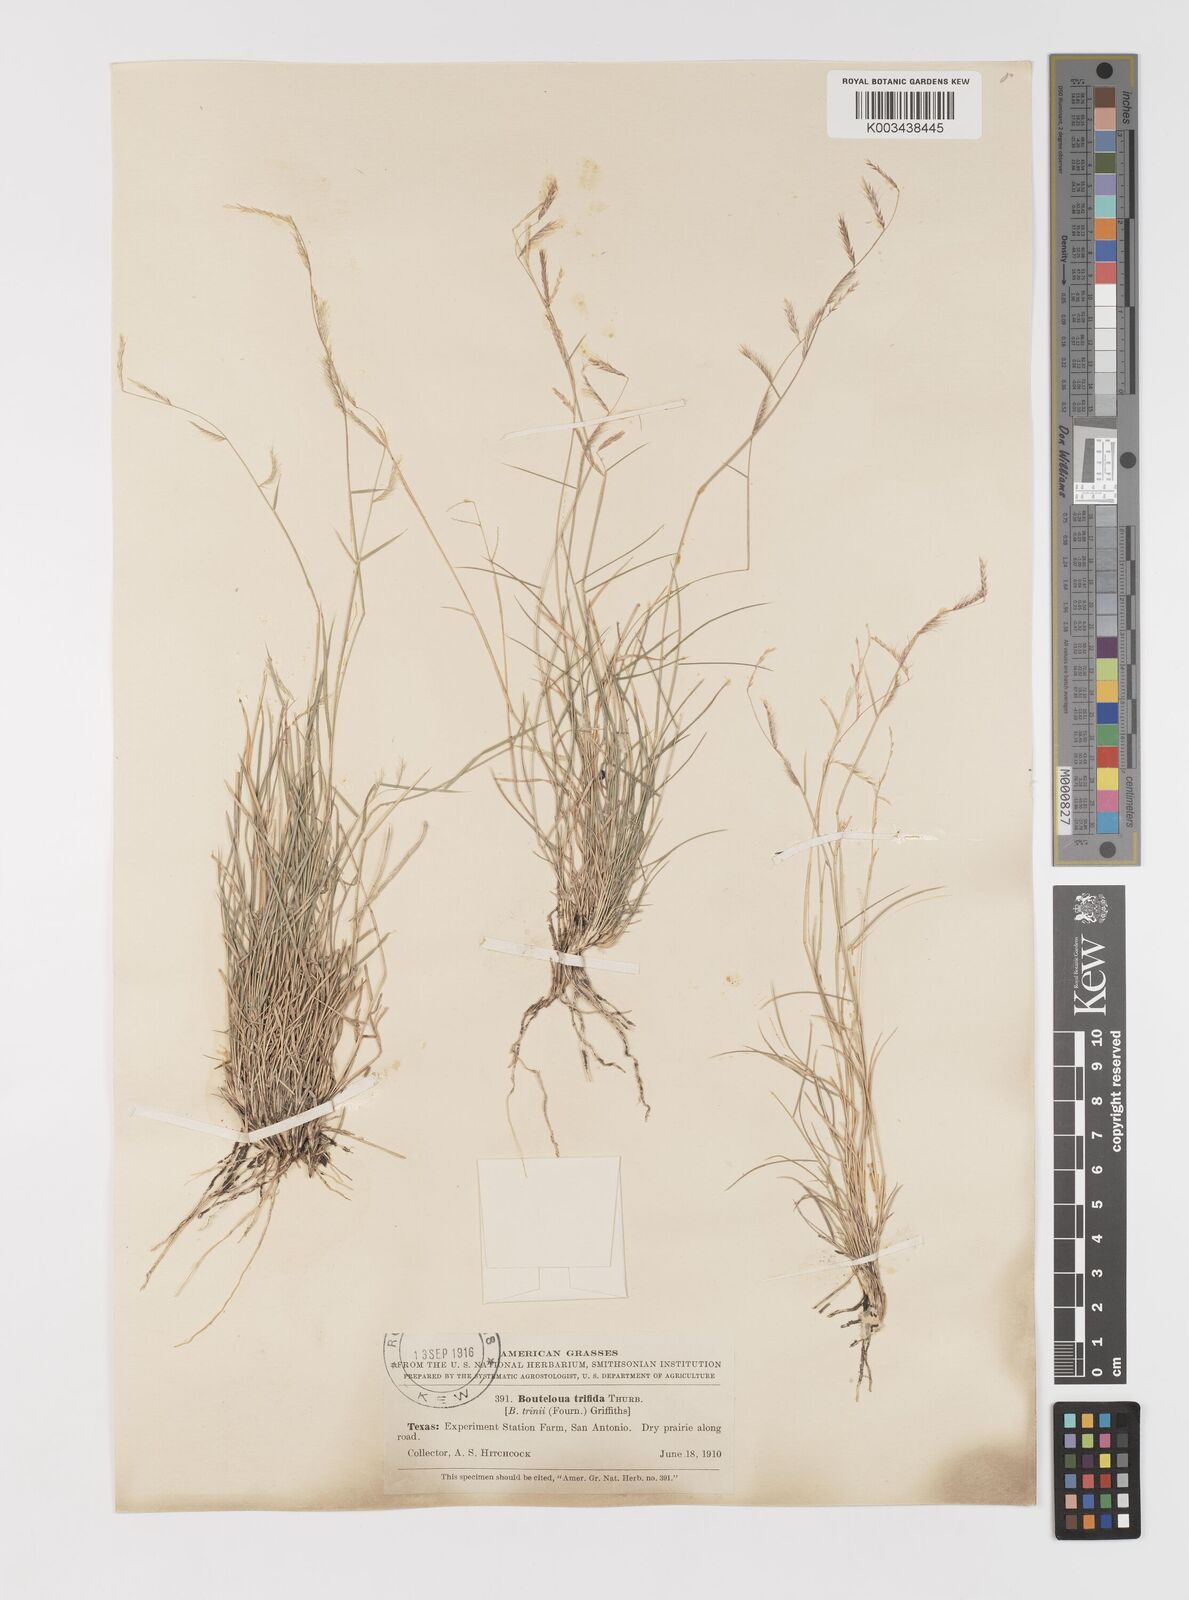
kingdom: Plantae
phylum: Tracheophyta
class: Liliopsida
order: Poales
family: Poaceae
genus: Bouteloua
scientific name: Bouteloua trifida
